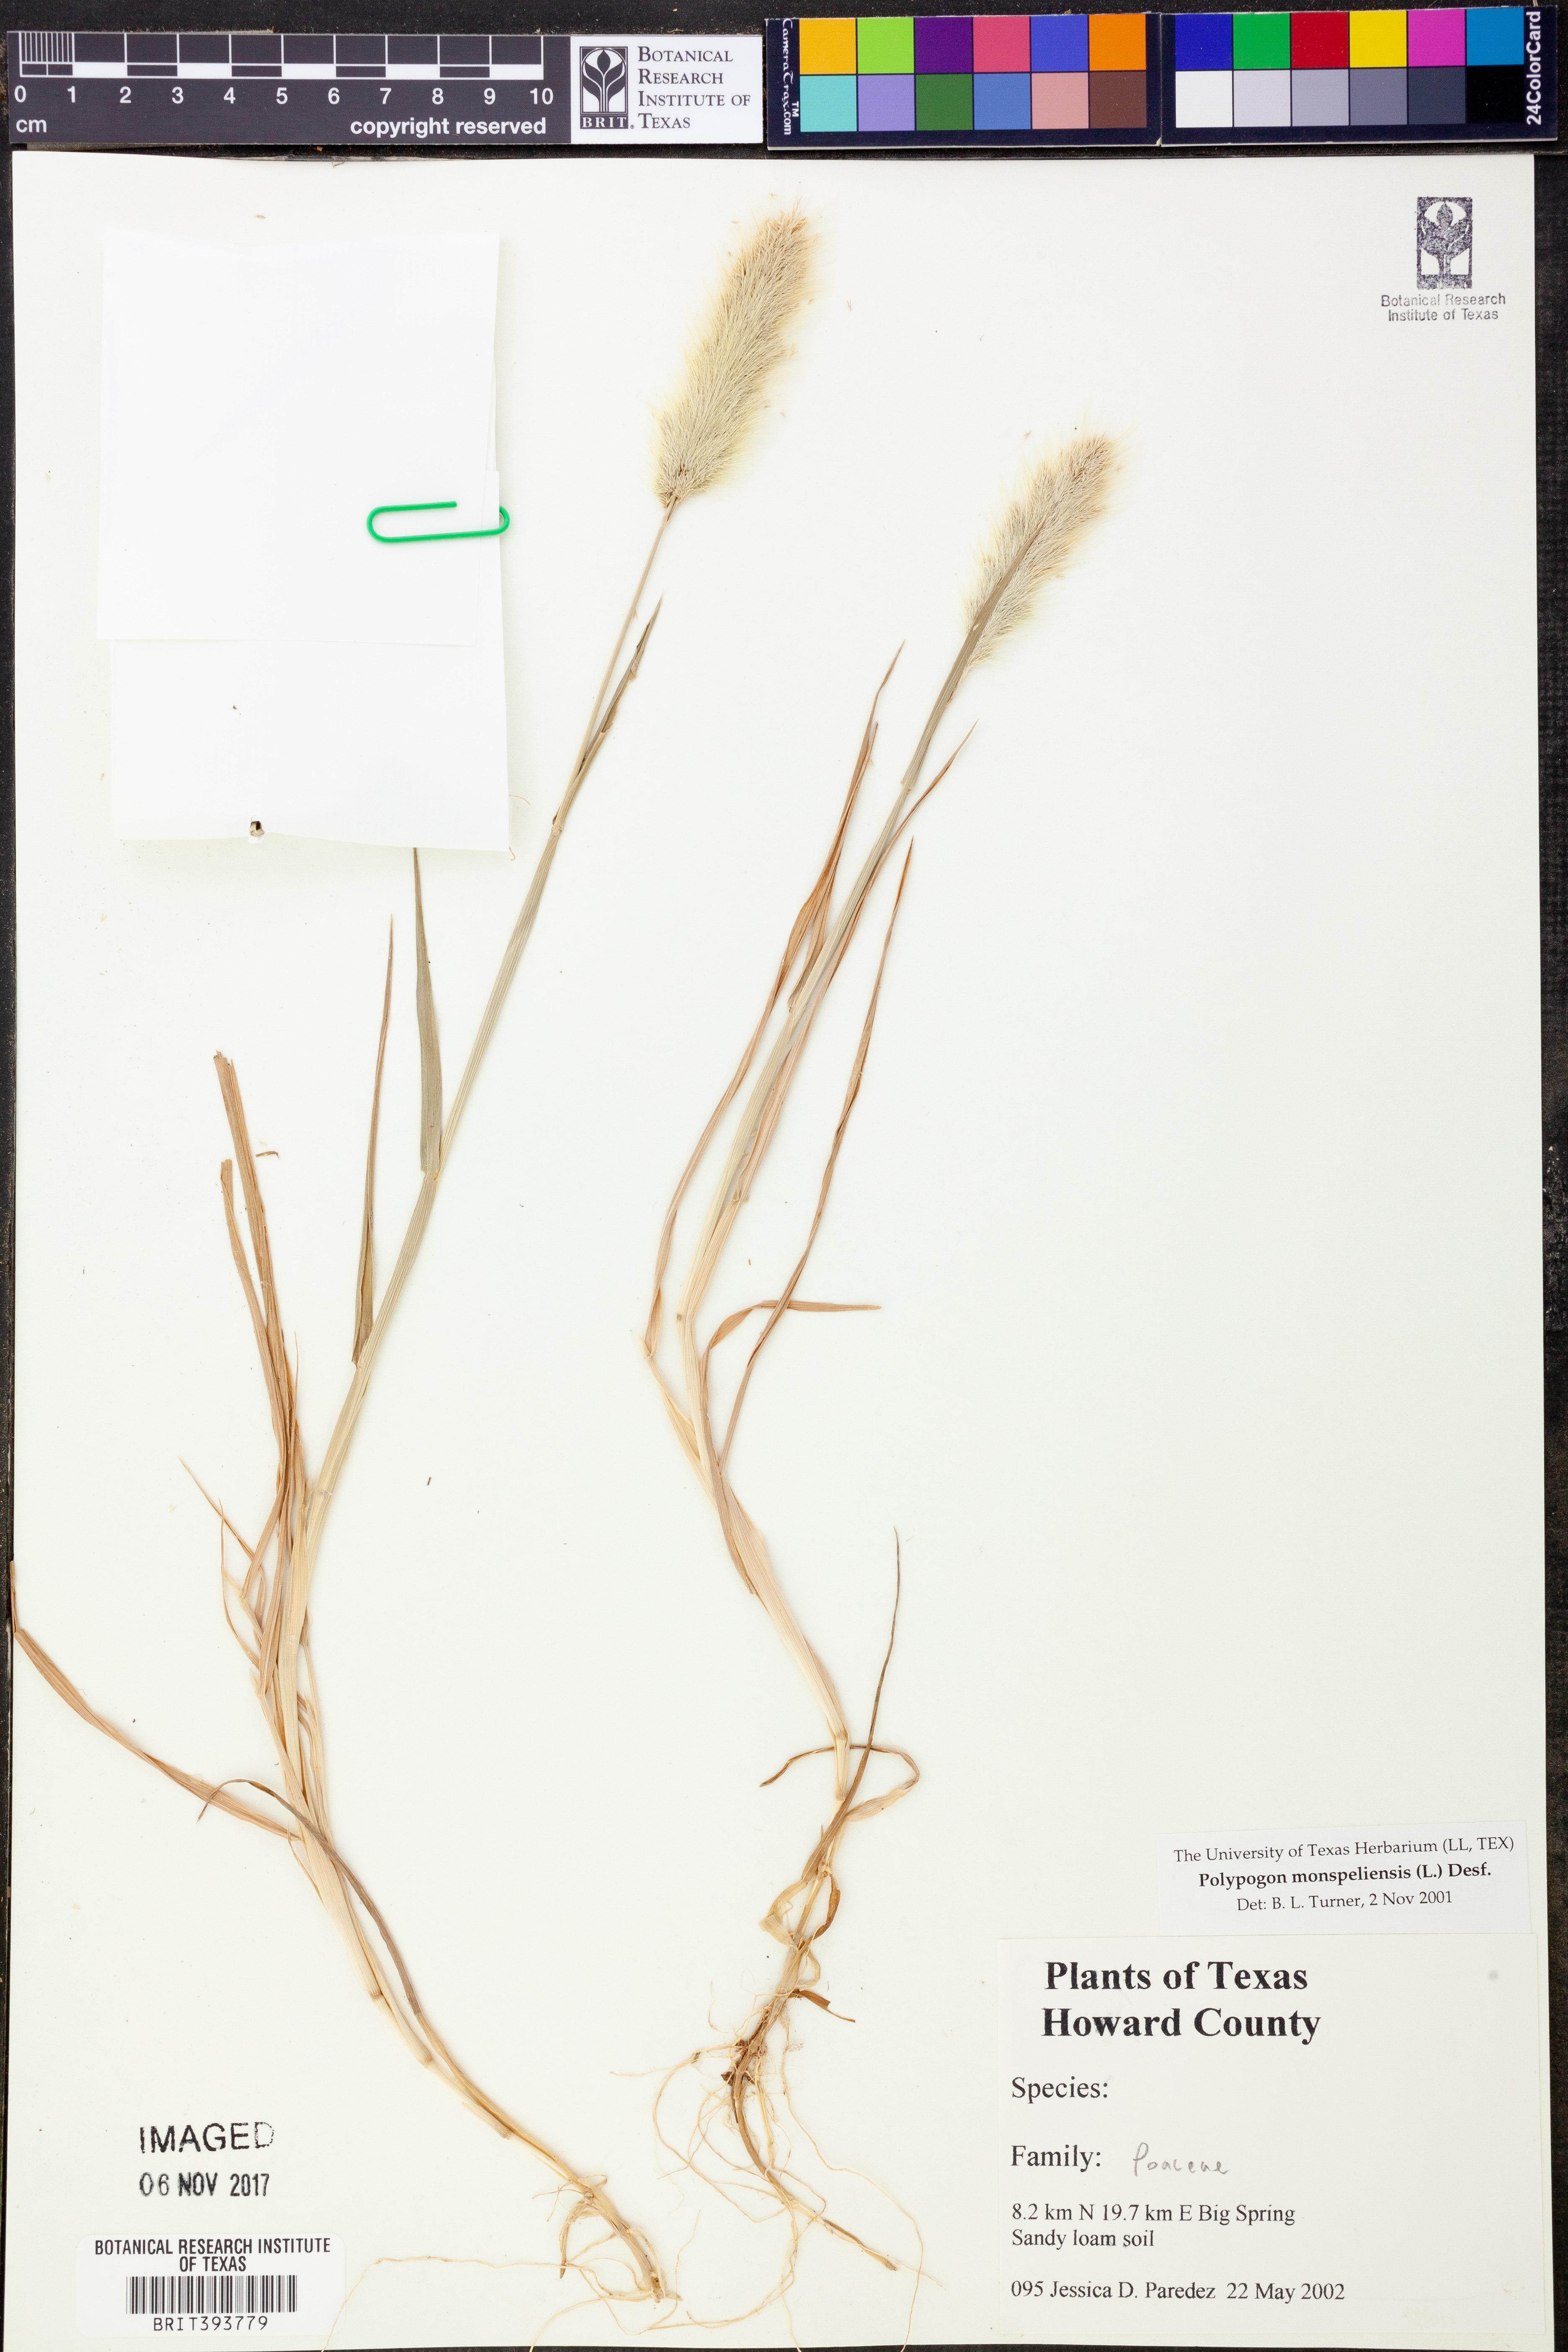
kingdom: Plantae
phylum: Tracheophyta
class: Liliopsida
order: Poales
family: Poaceae
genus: Polypogon
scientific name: Polypogon monspeliensis
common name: Annual rabbitsfoot grass
